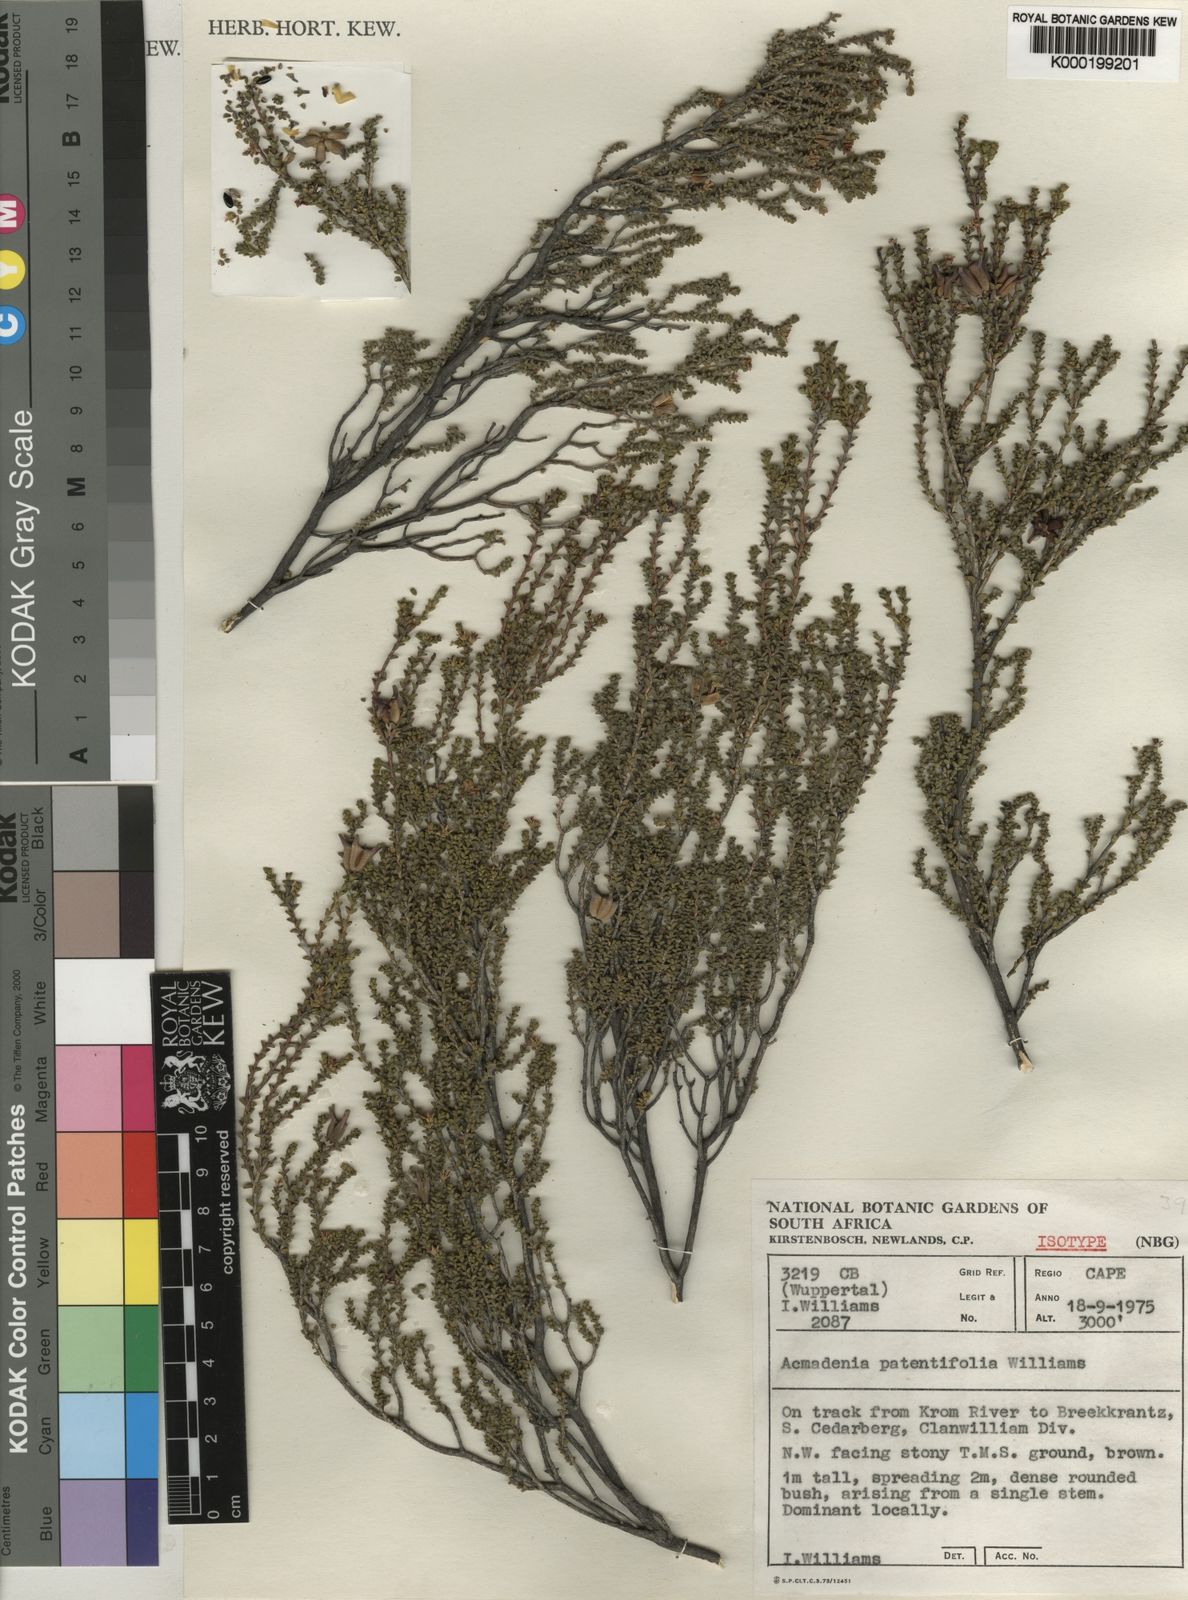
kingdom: Plantae
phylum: Tracheophyta
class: Magnoliopsida
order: Sapindales
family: Rutaceae
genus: Acmadenia
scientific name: Acmadenia patentifolia
